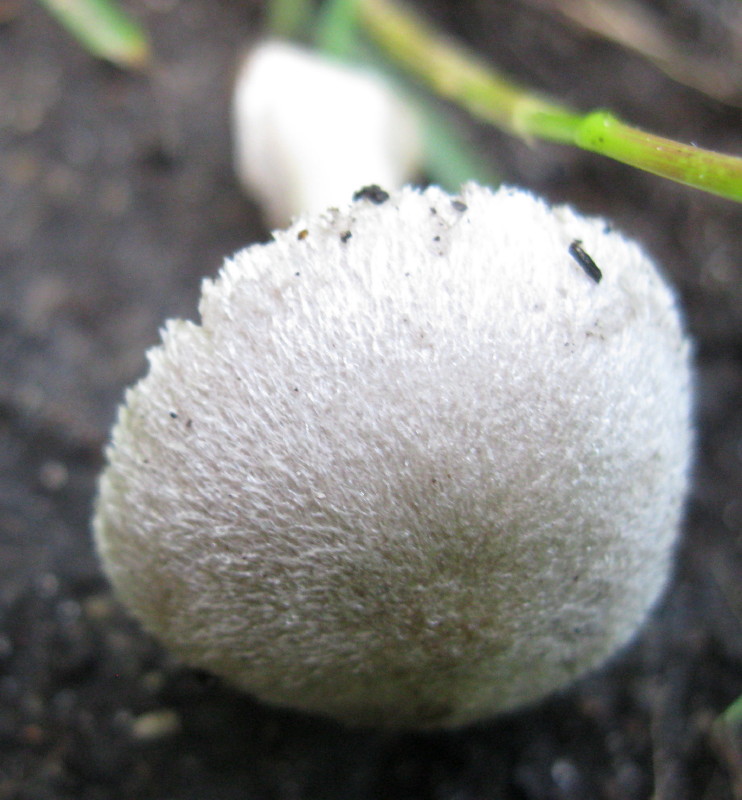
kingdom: Fungi
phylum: Basidiomycota
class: Agaricomycetes
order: Agaricales
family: Pluteaceae
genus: Volvariella
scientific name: Volvariella murinella
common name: musegrå posesvamp
